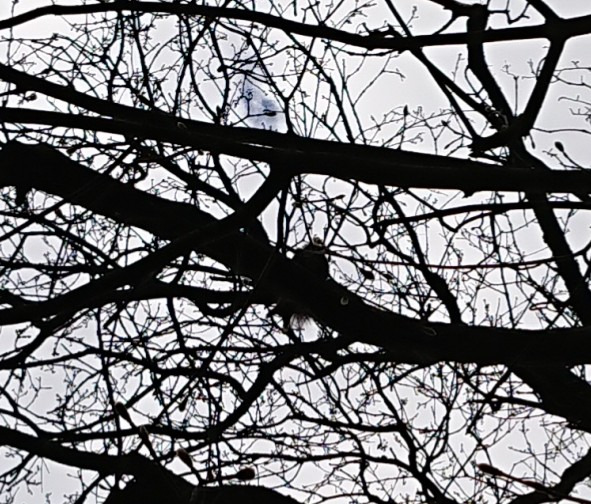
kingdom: Animalia
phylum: Chordata
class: Mammalia
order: Rodentia
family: Sciuridae
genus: Sciurus
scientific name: Sciurus vulgaris
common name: Egern
